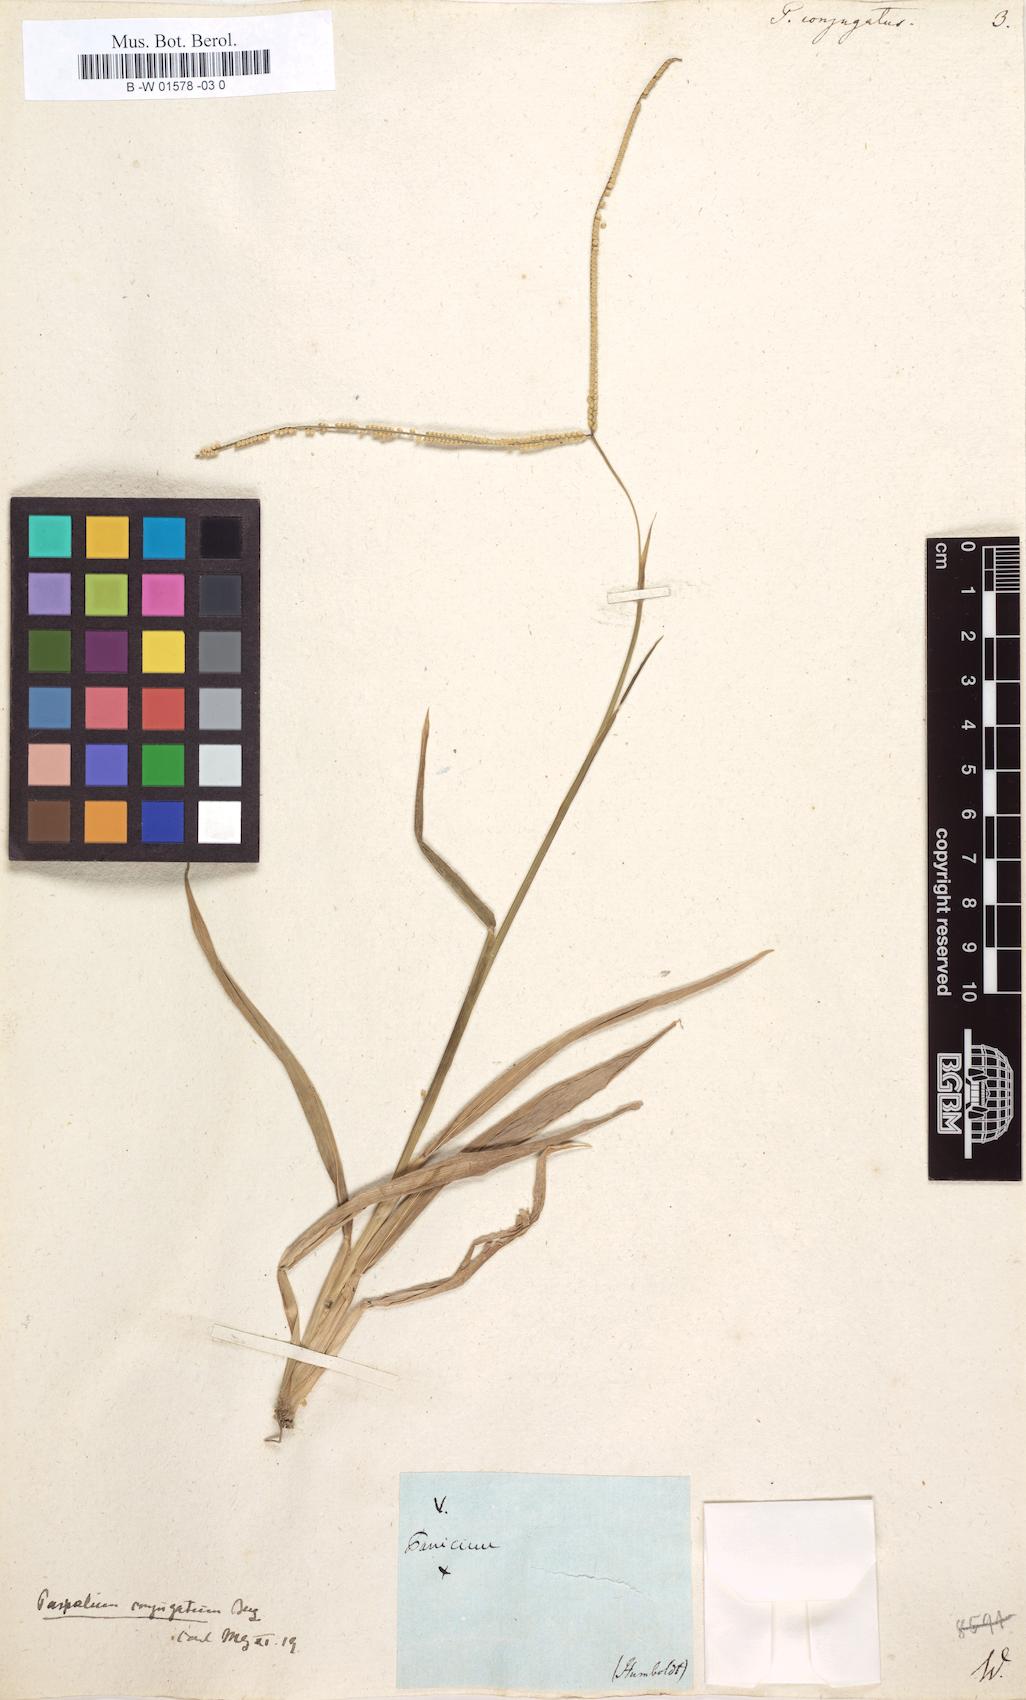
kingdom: Plantae
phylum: Tracheophyta
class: Liliopsida
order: Poales
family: Poaceae
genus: Paspalum
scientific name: Paspalum conjugatum
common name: Hilograss
